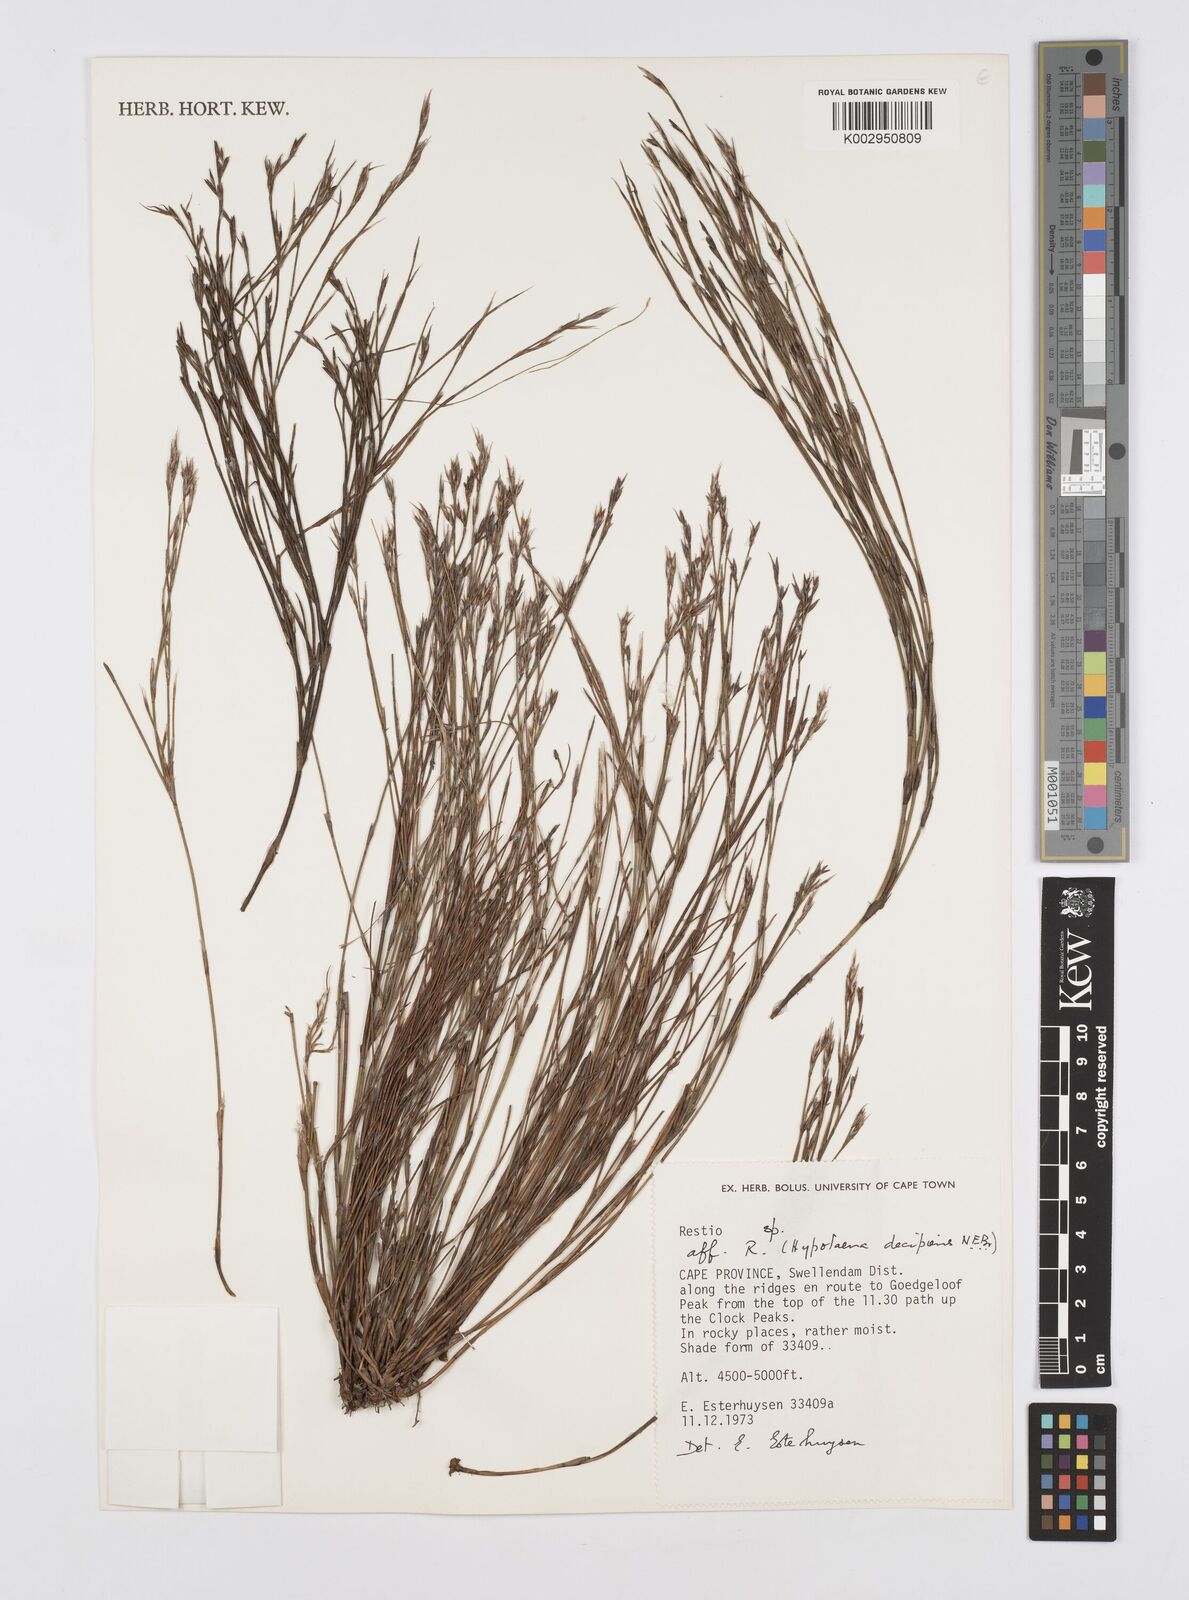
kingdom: Plantae
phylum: Tracheophyta
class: Liliopsida
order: Poales
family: Restionaceae
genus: Restio
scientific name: Restio decipiens
